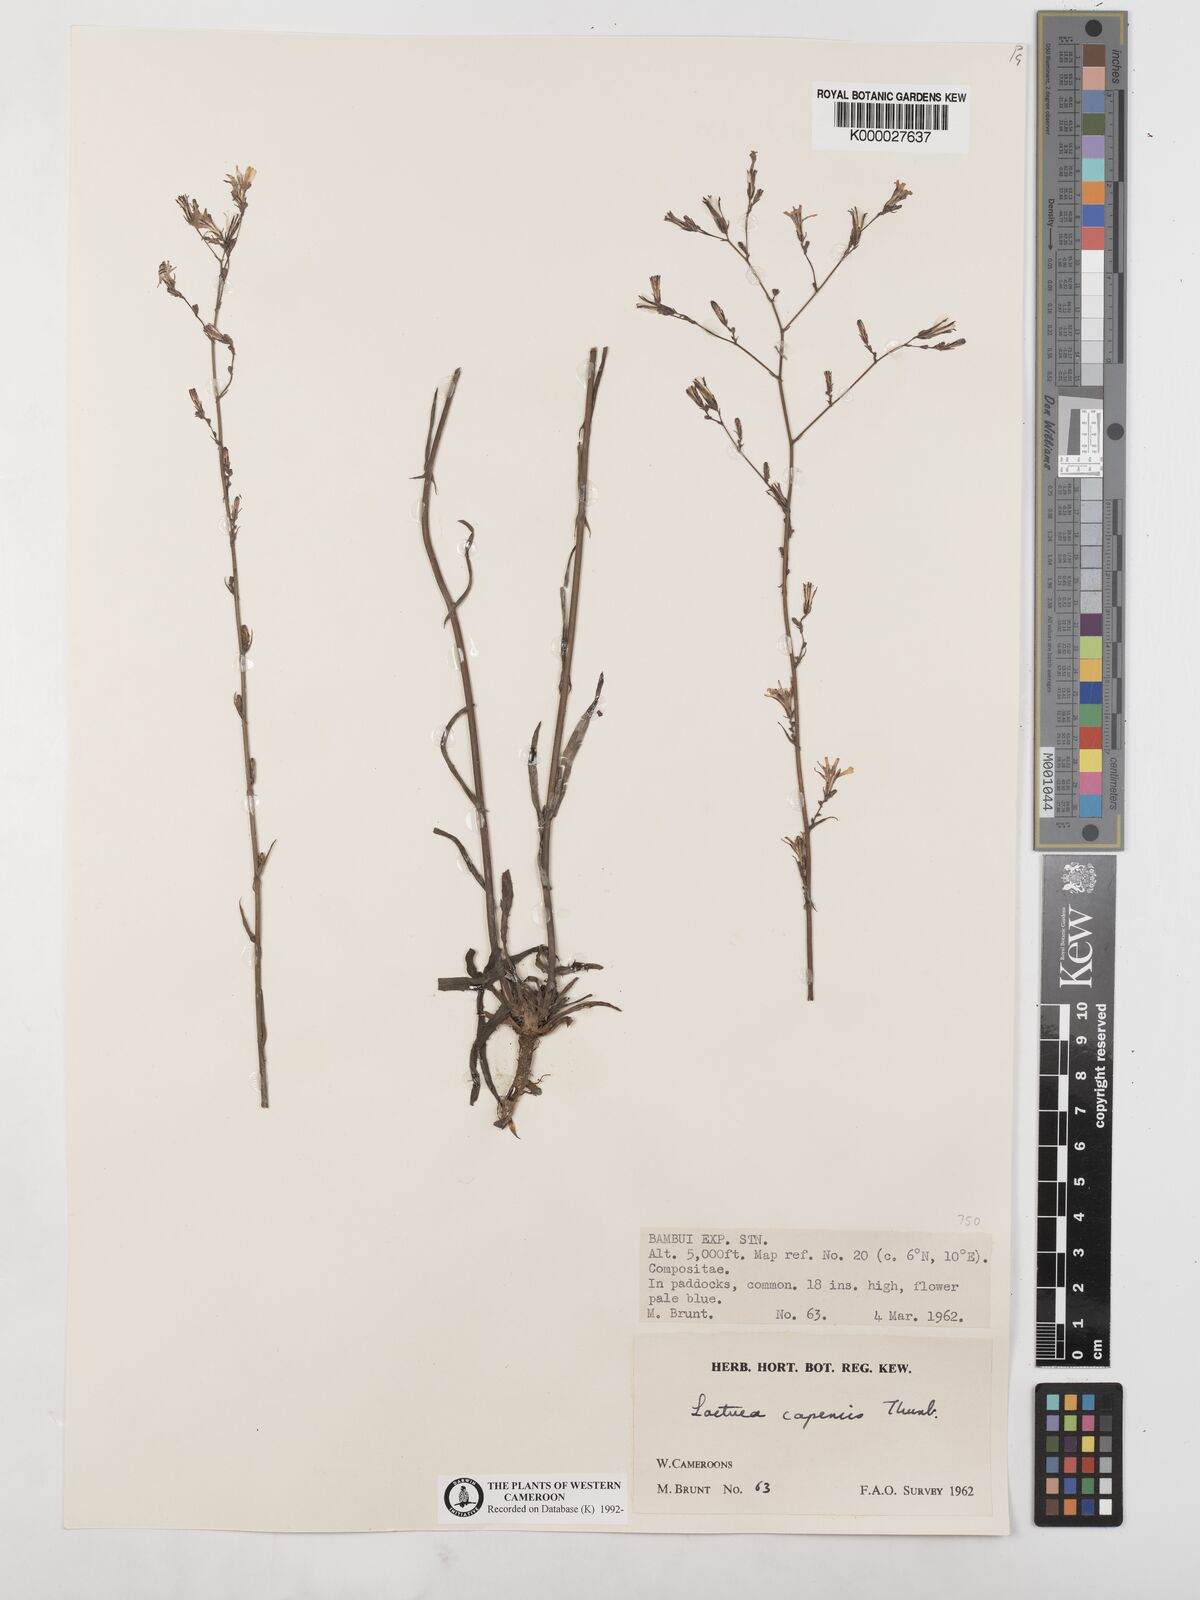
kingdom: Plantae
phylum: Tracheophyta
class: Magnoliopsida
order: Asterales
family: Asteraceae
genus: Lactuca
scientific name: Lactuca inermis
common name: Wild lettuce
